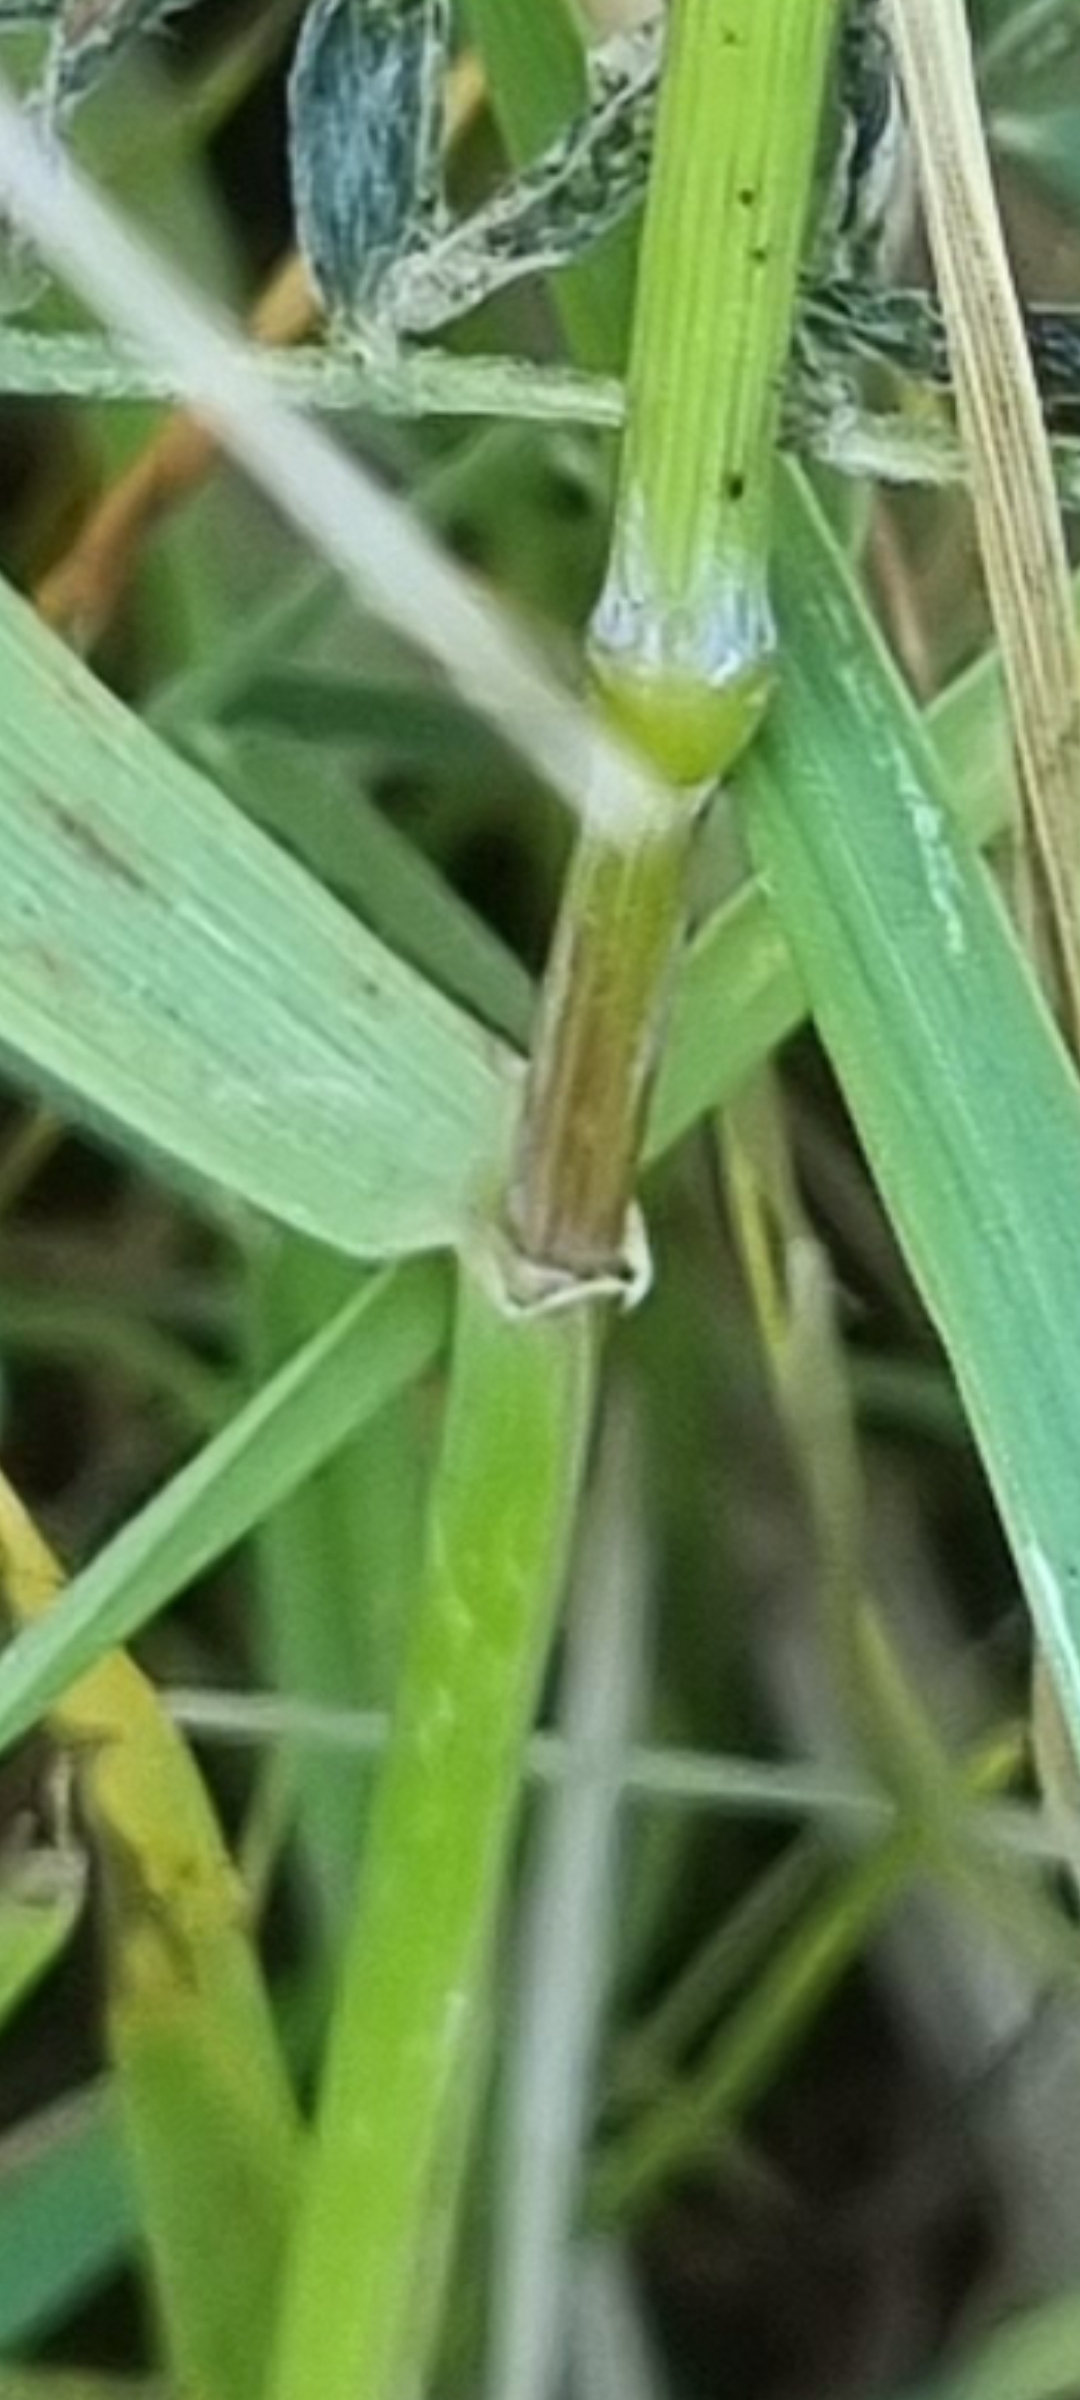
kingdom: Plantae
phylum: Tracheophyta
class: Liliopsida
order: Poales
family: Poaceae
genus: Elymus
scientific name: Elymus repens
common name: Almindelig kvik
